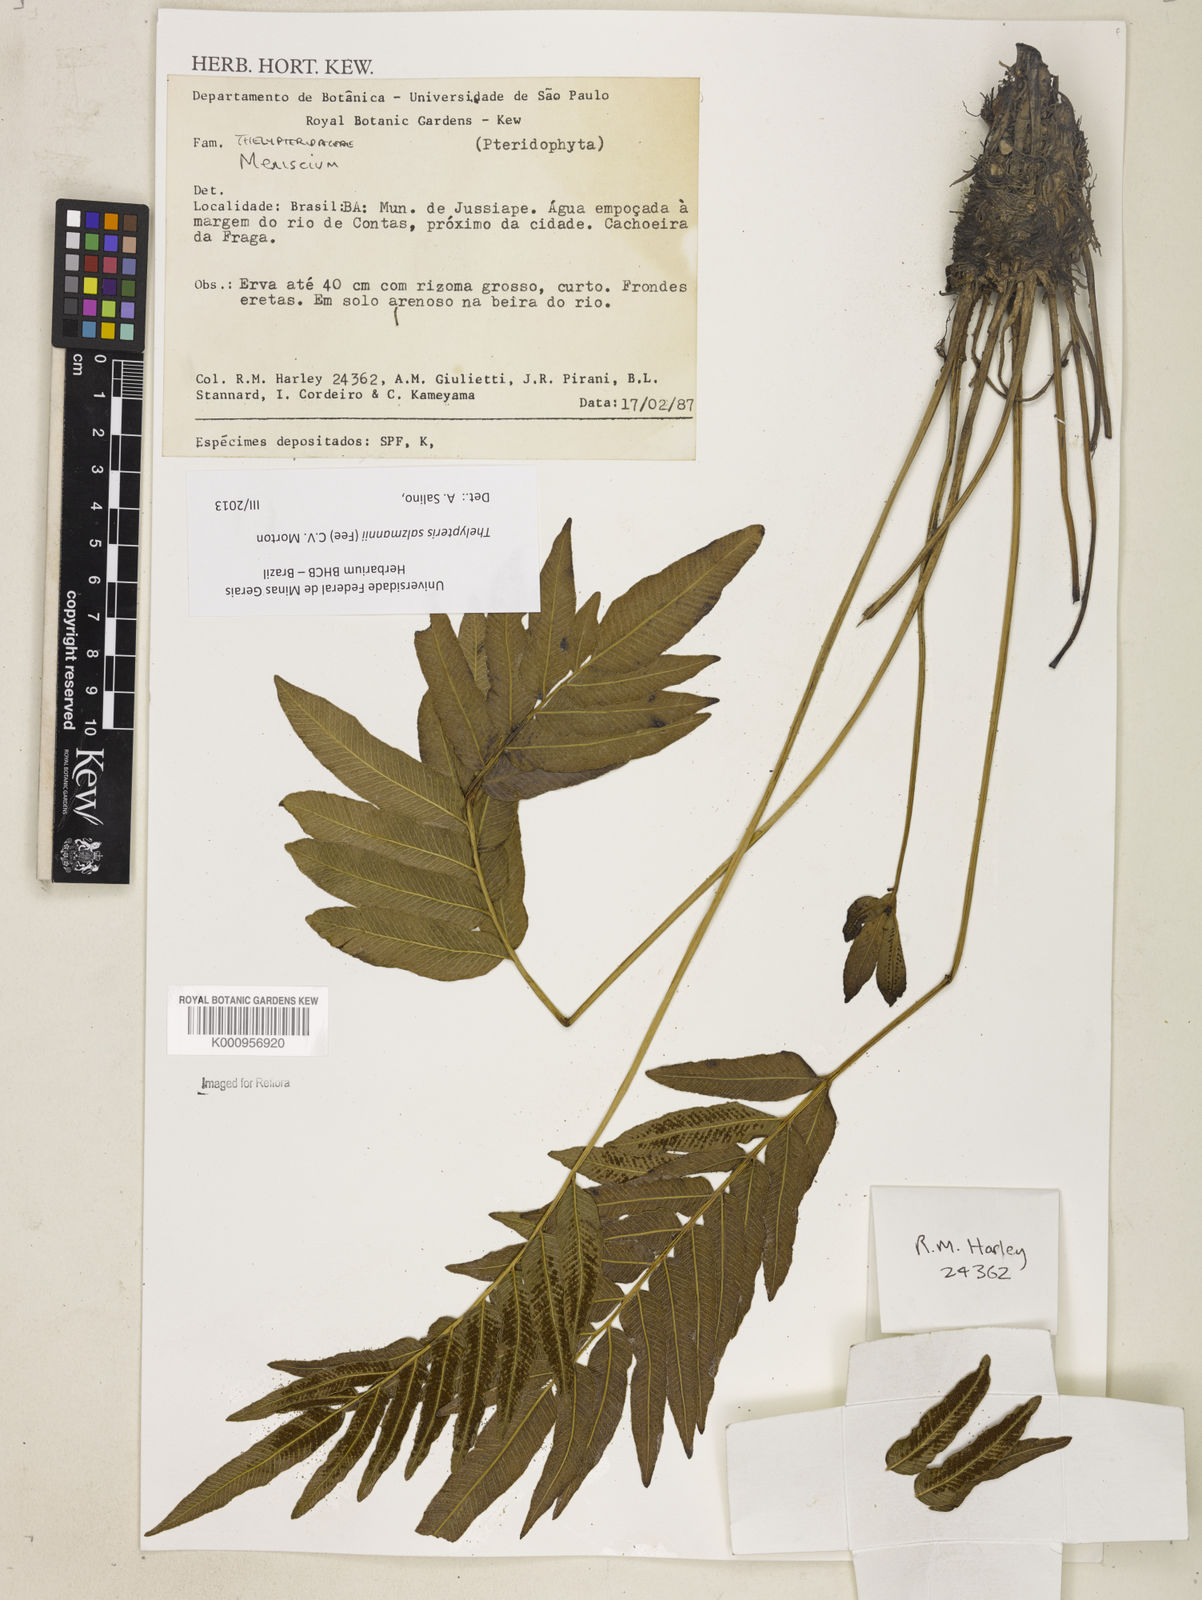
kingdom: Plantae
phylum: Tracheophyta
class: Polypodiopsida
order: Polypodiales
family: Thelypteridaceae
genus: Meniscium
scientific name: Meniscium arborescens
